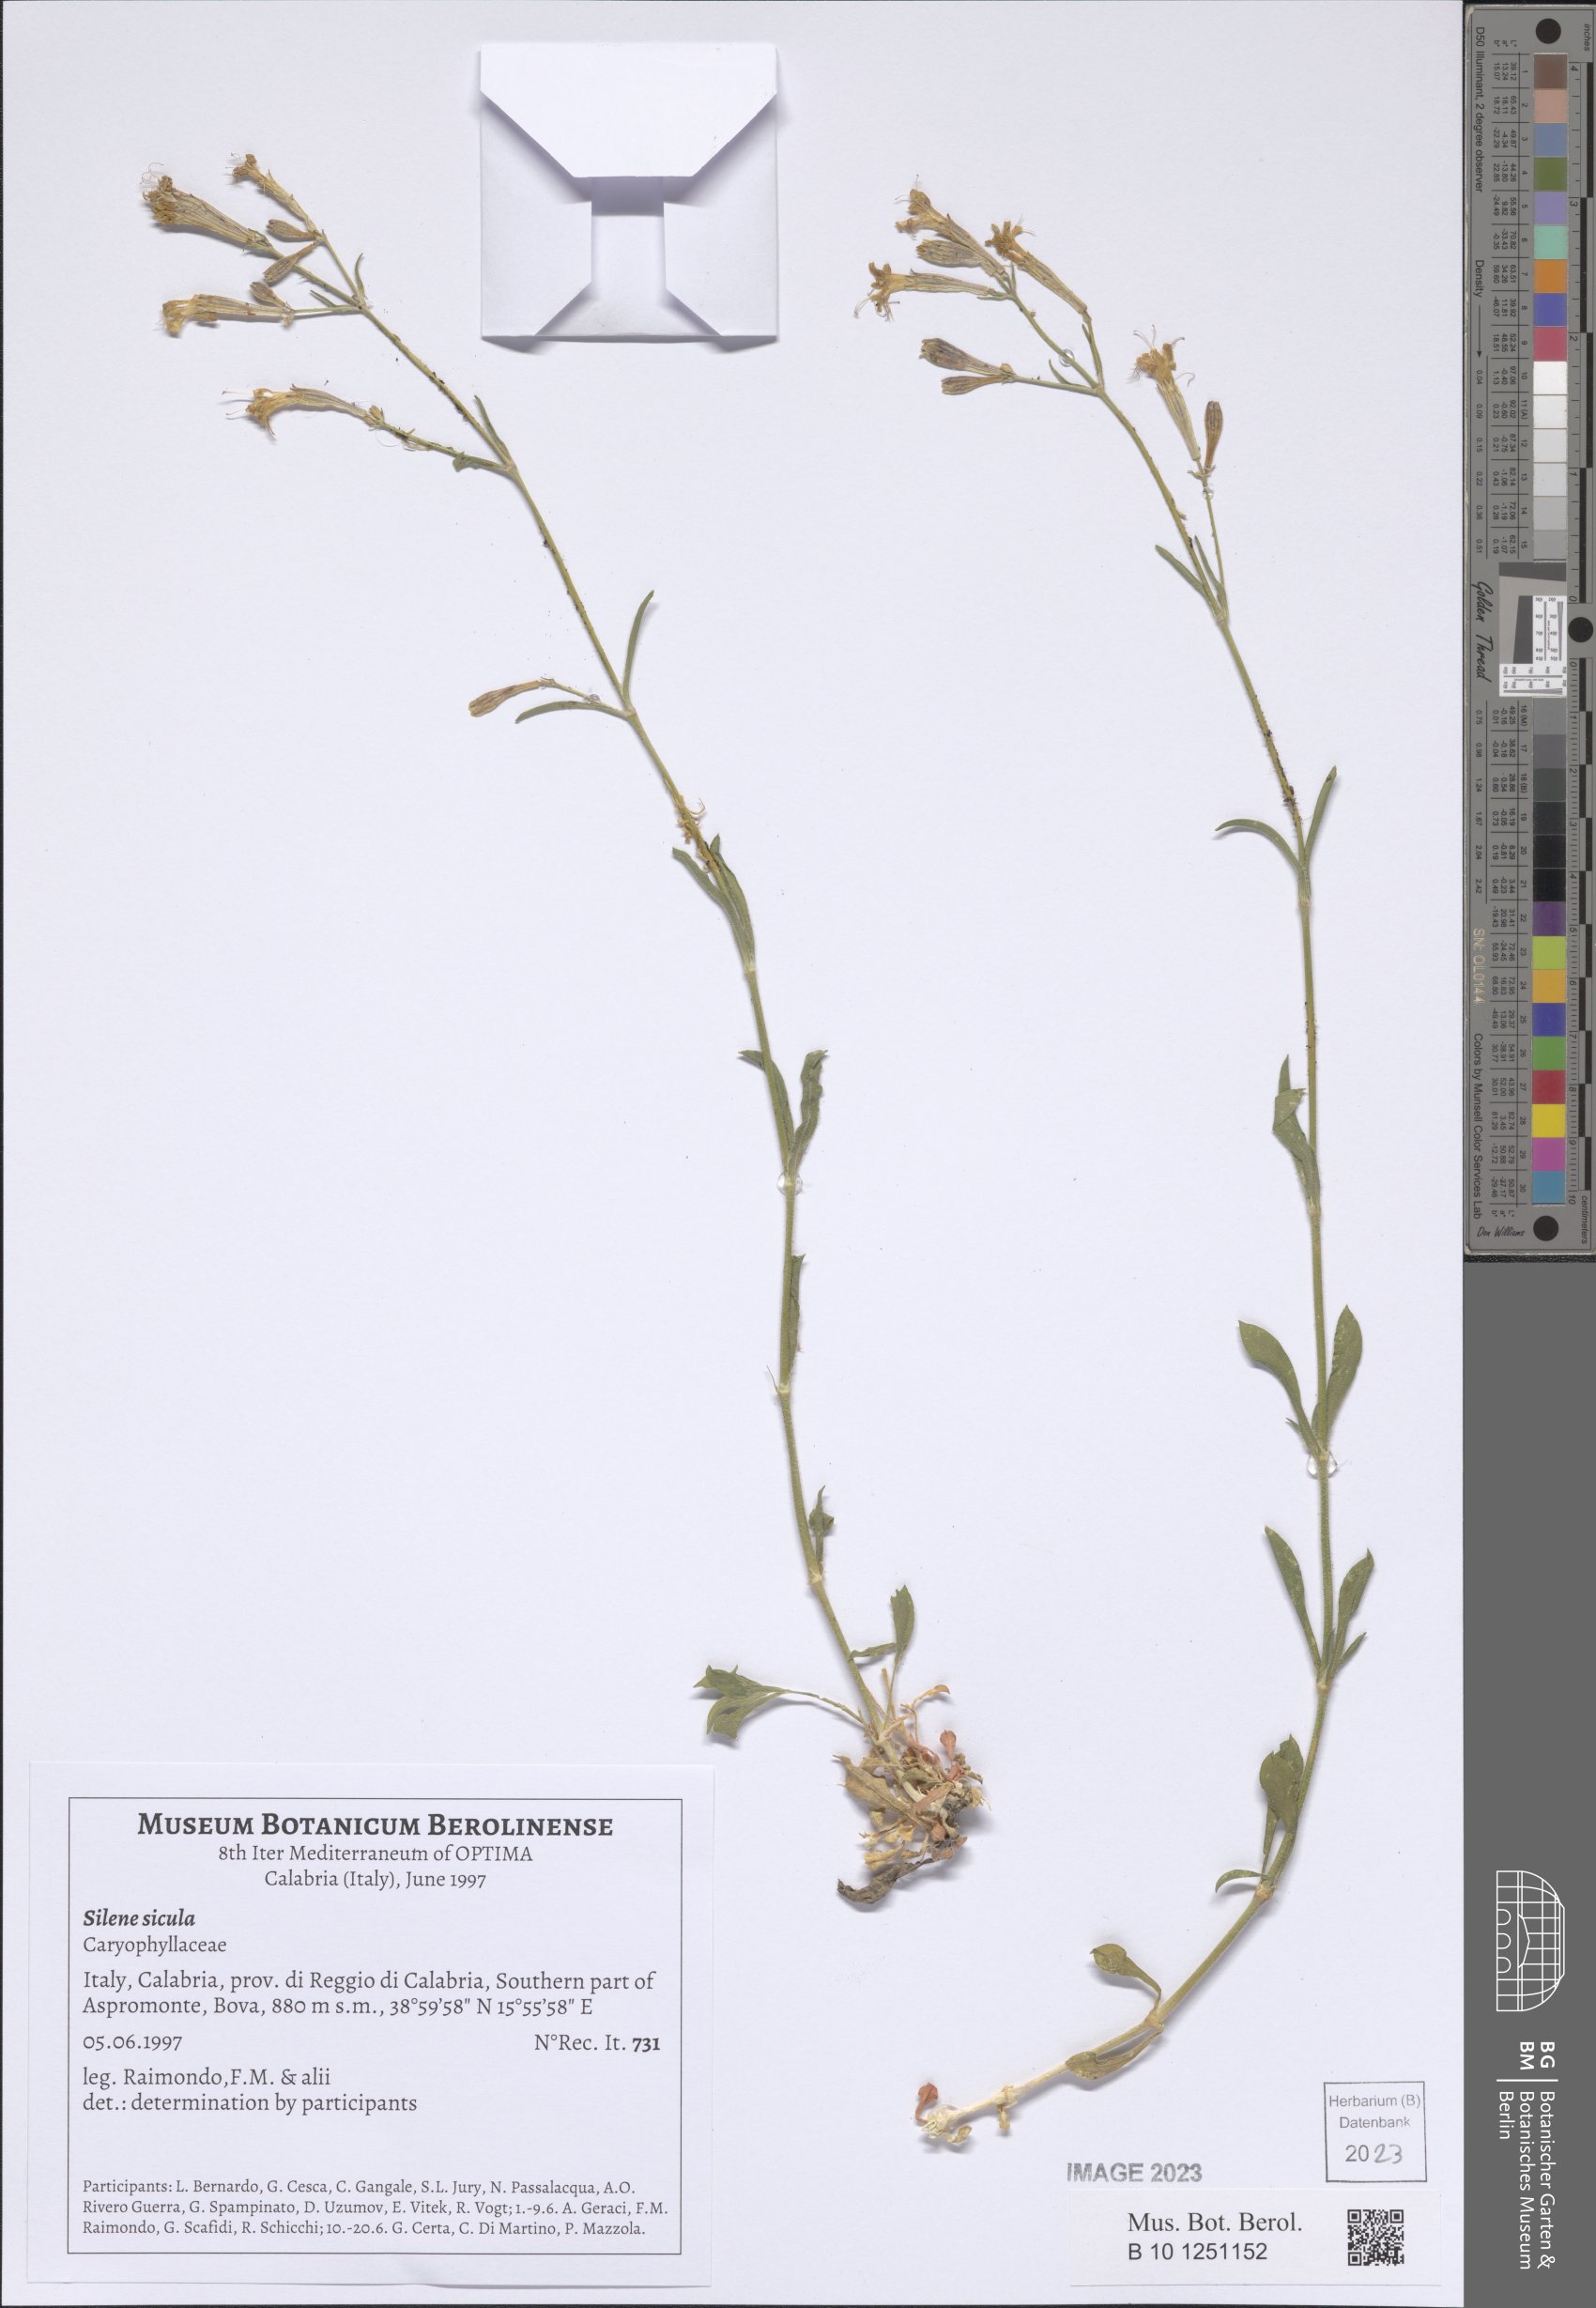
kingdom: Plantae
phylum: Tracheophyta
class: Magnoliopsida
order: Caryophyllales
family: Caryophyllaceae
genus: Silene
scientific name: Silene italica
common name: Italian catchfly
